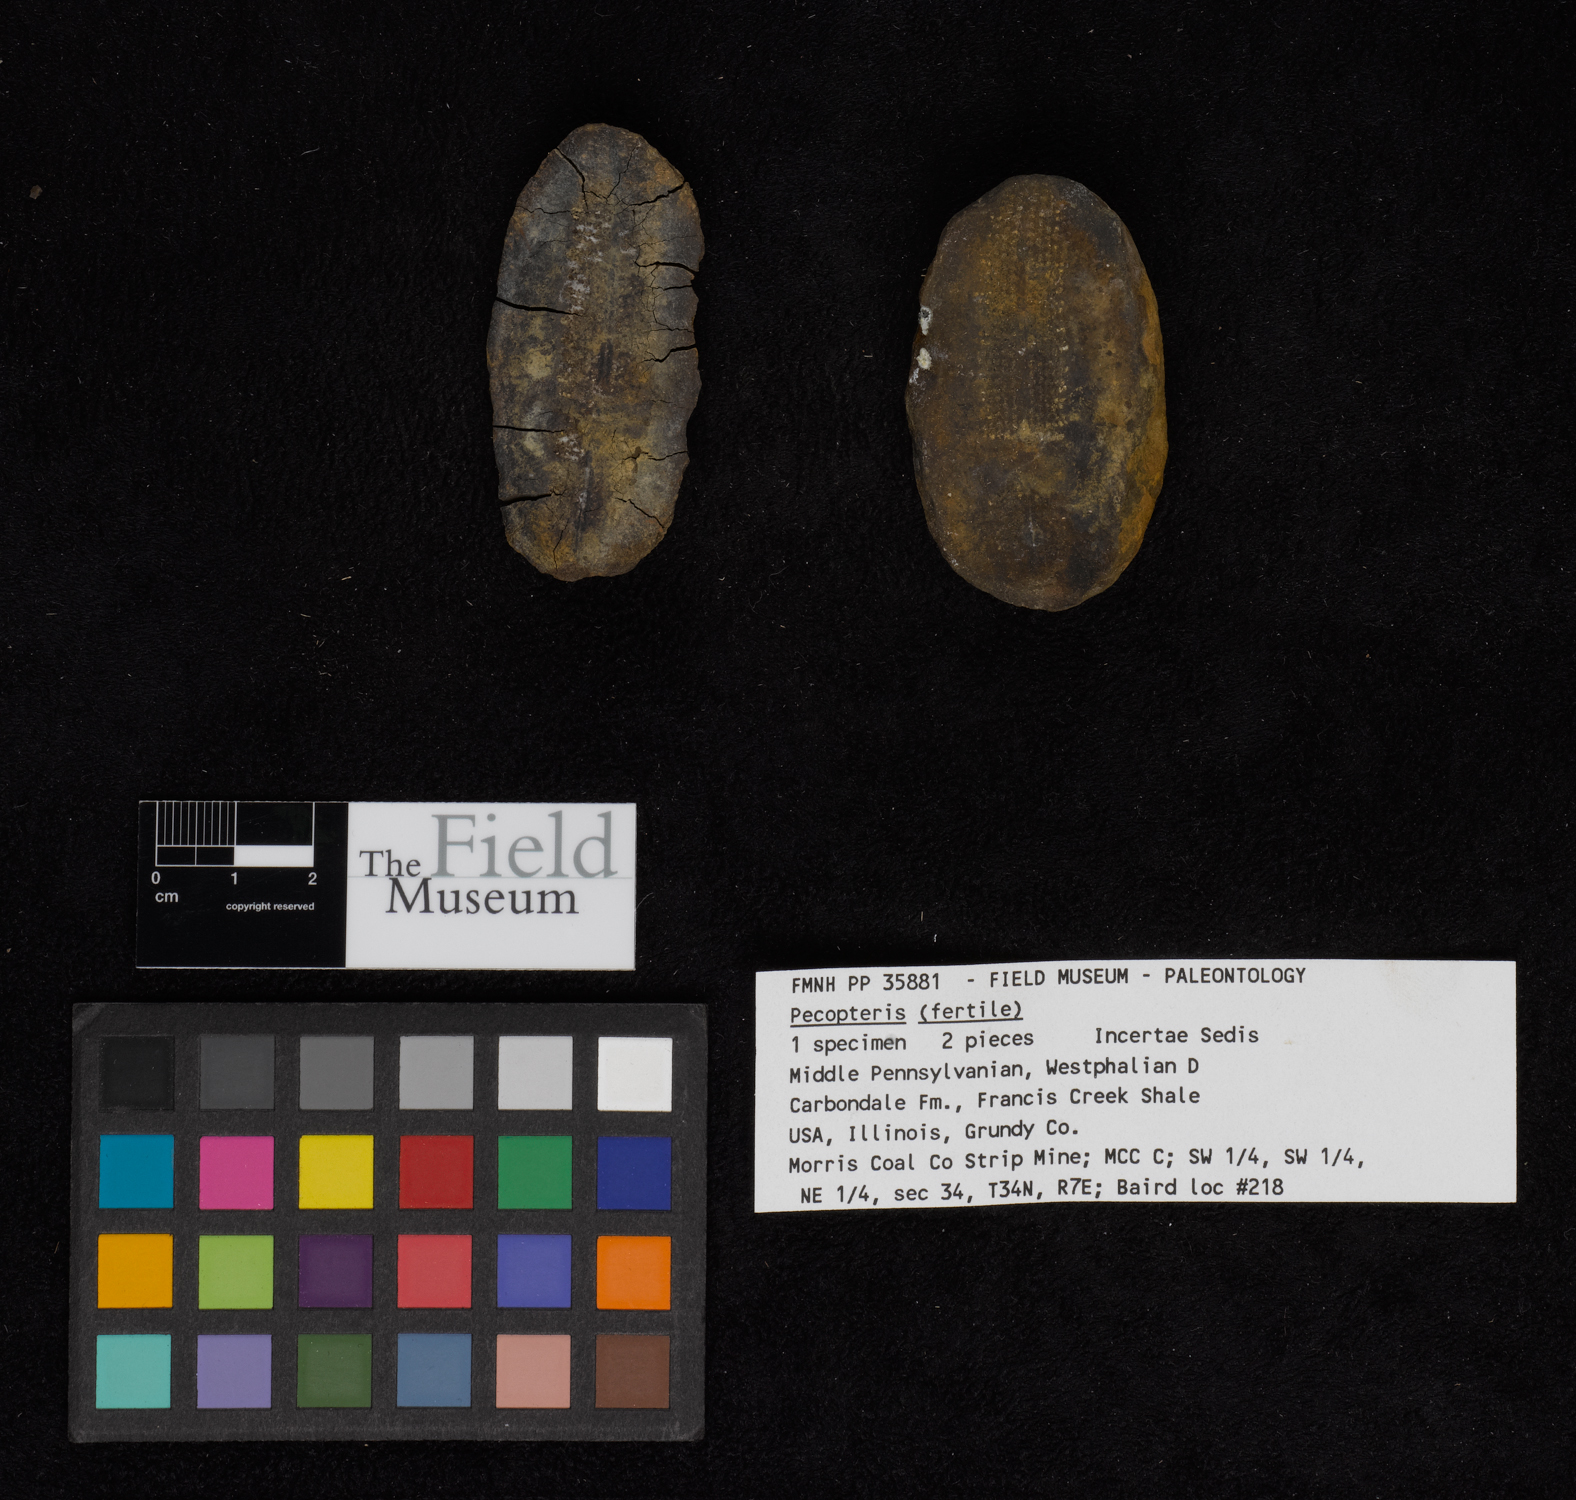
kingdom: Plantae
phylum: Tracheophyta
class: Polypodiopsida
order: Marattiales
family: Asterothecaceae
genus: Pecopteris
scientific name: Pecopteris
